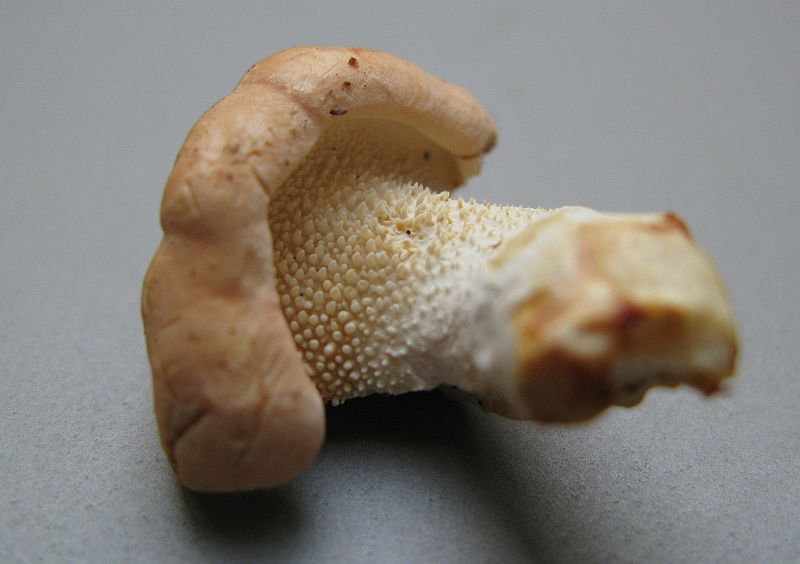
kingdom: Fungi
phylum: Basidiomycota
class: Agaricomycetes
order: Cantharellales
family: Hydnaceae
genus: Hydnum
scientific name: Hydnum rufescens
